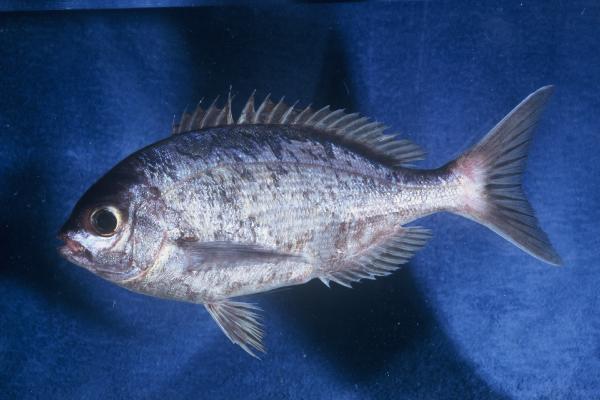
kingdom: Animalia
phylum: Chordata
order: Perciformes
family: Sparidae
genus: Pachymetopon
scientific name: Pachymetopon aeneum
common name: Blue hottentot
